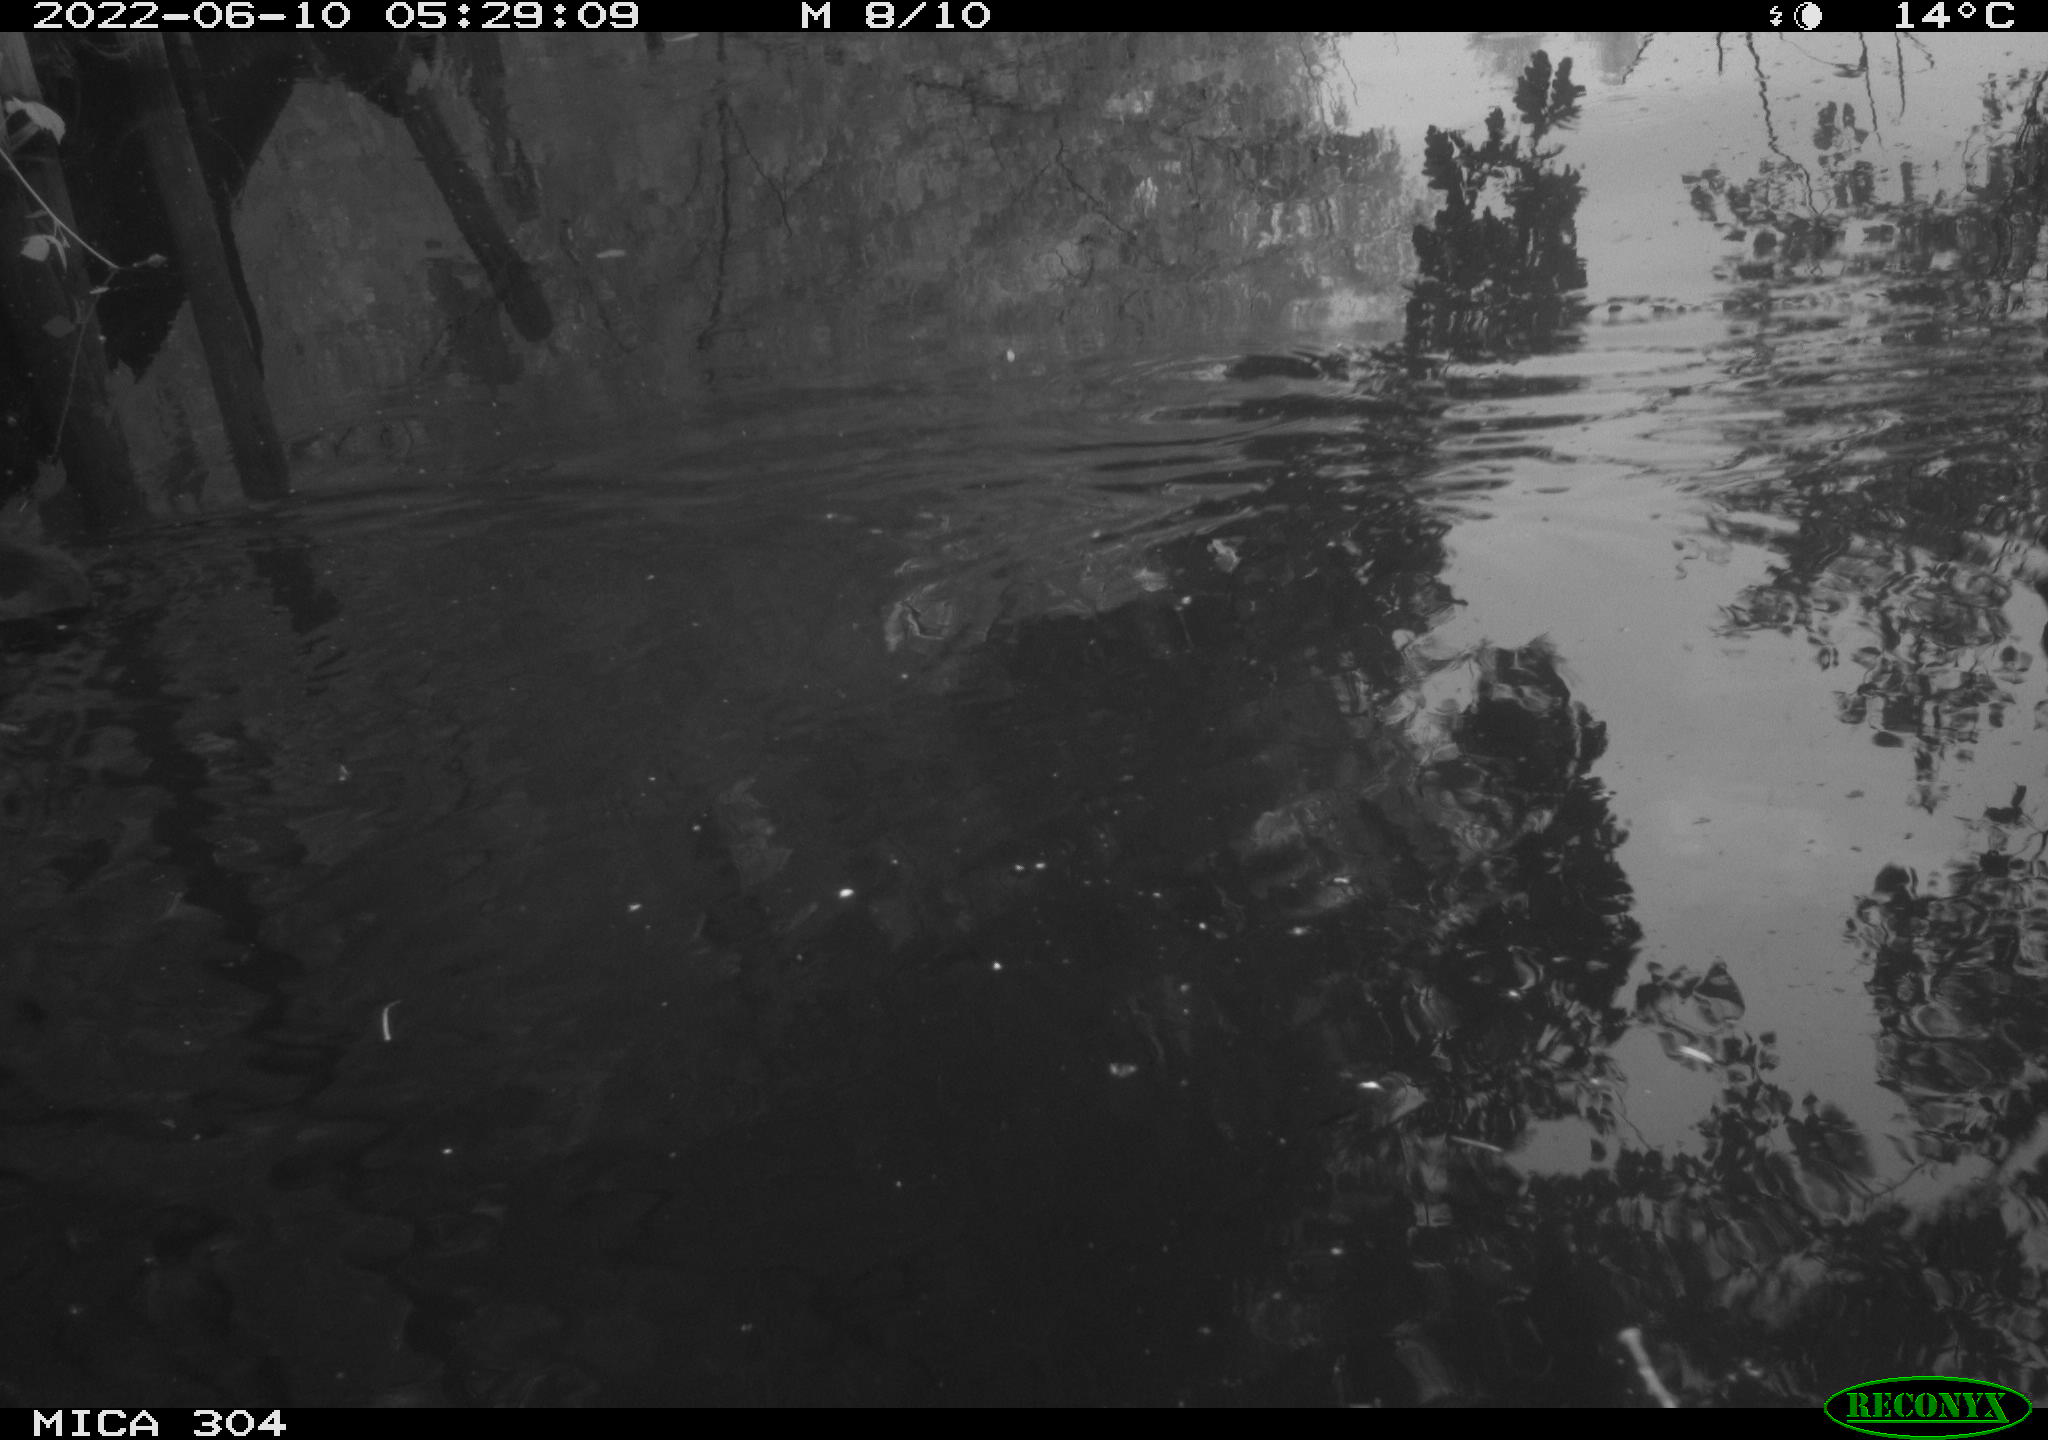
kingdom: Animalia
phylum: Chordata
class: Aves
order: Anseriformes
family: Anatidae
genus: Anas
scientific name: Anas platyrhynchos
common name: Mallard
